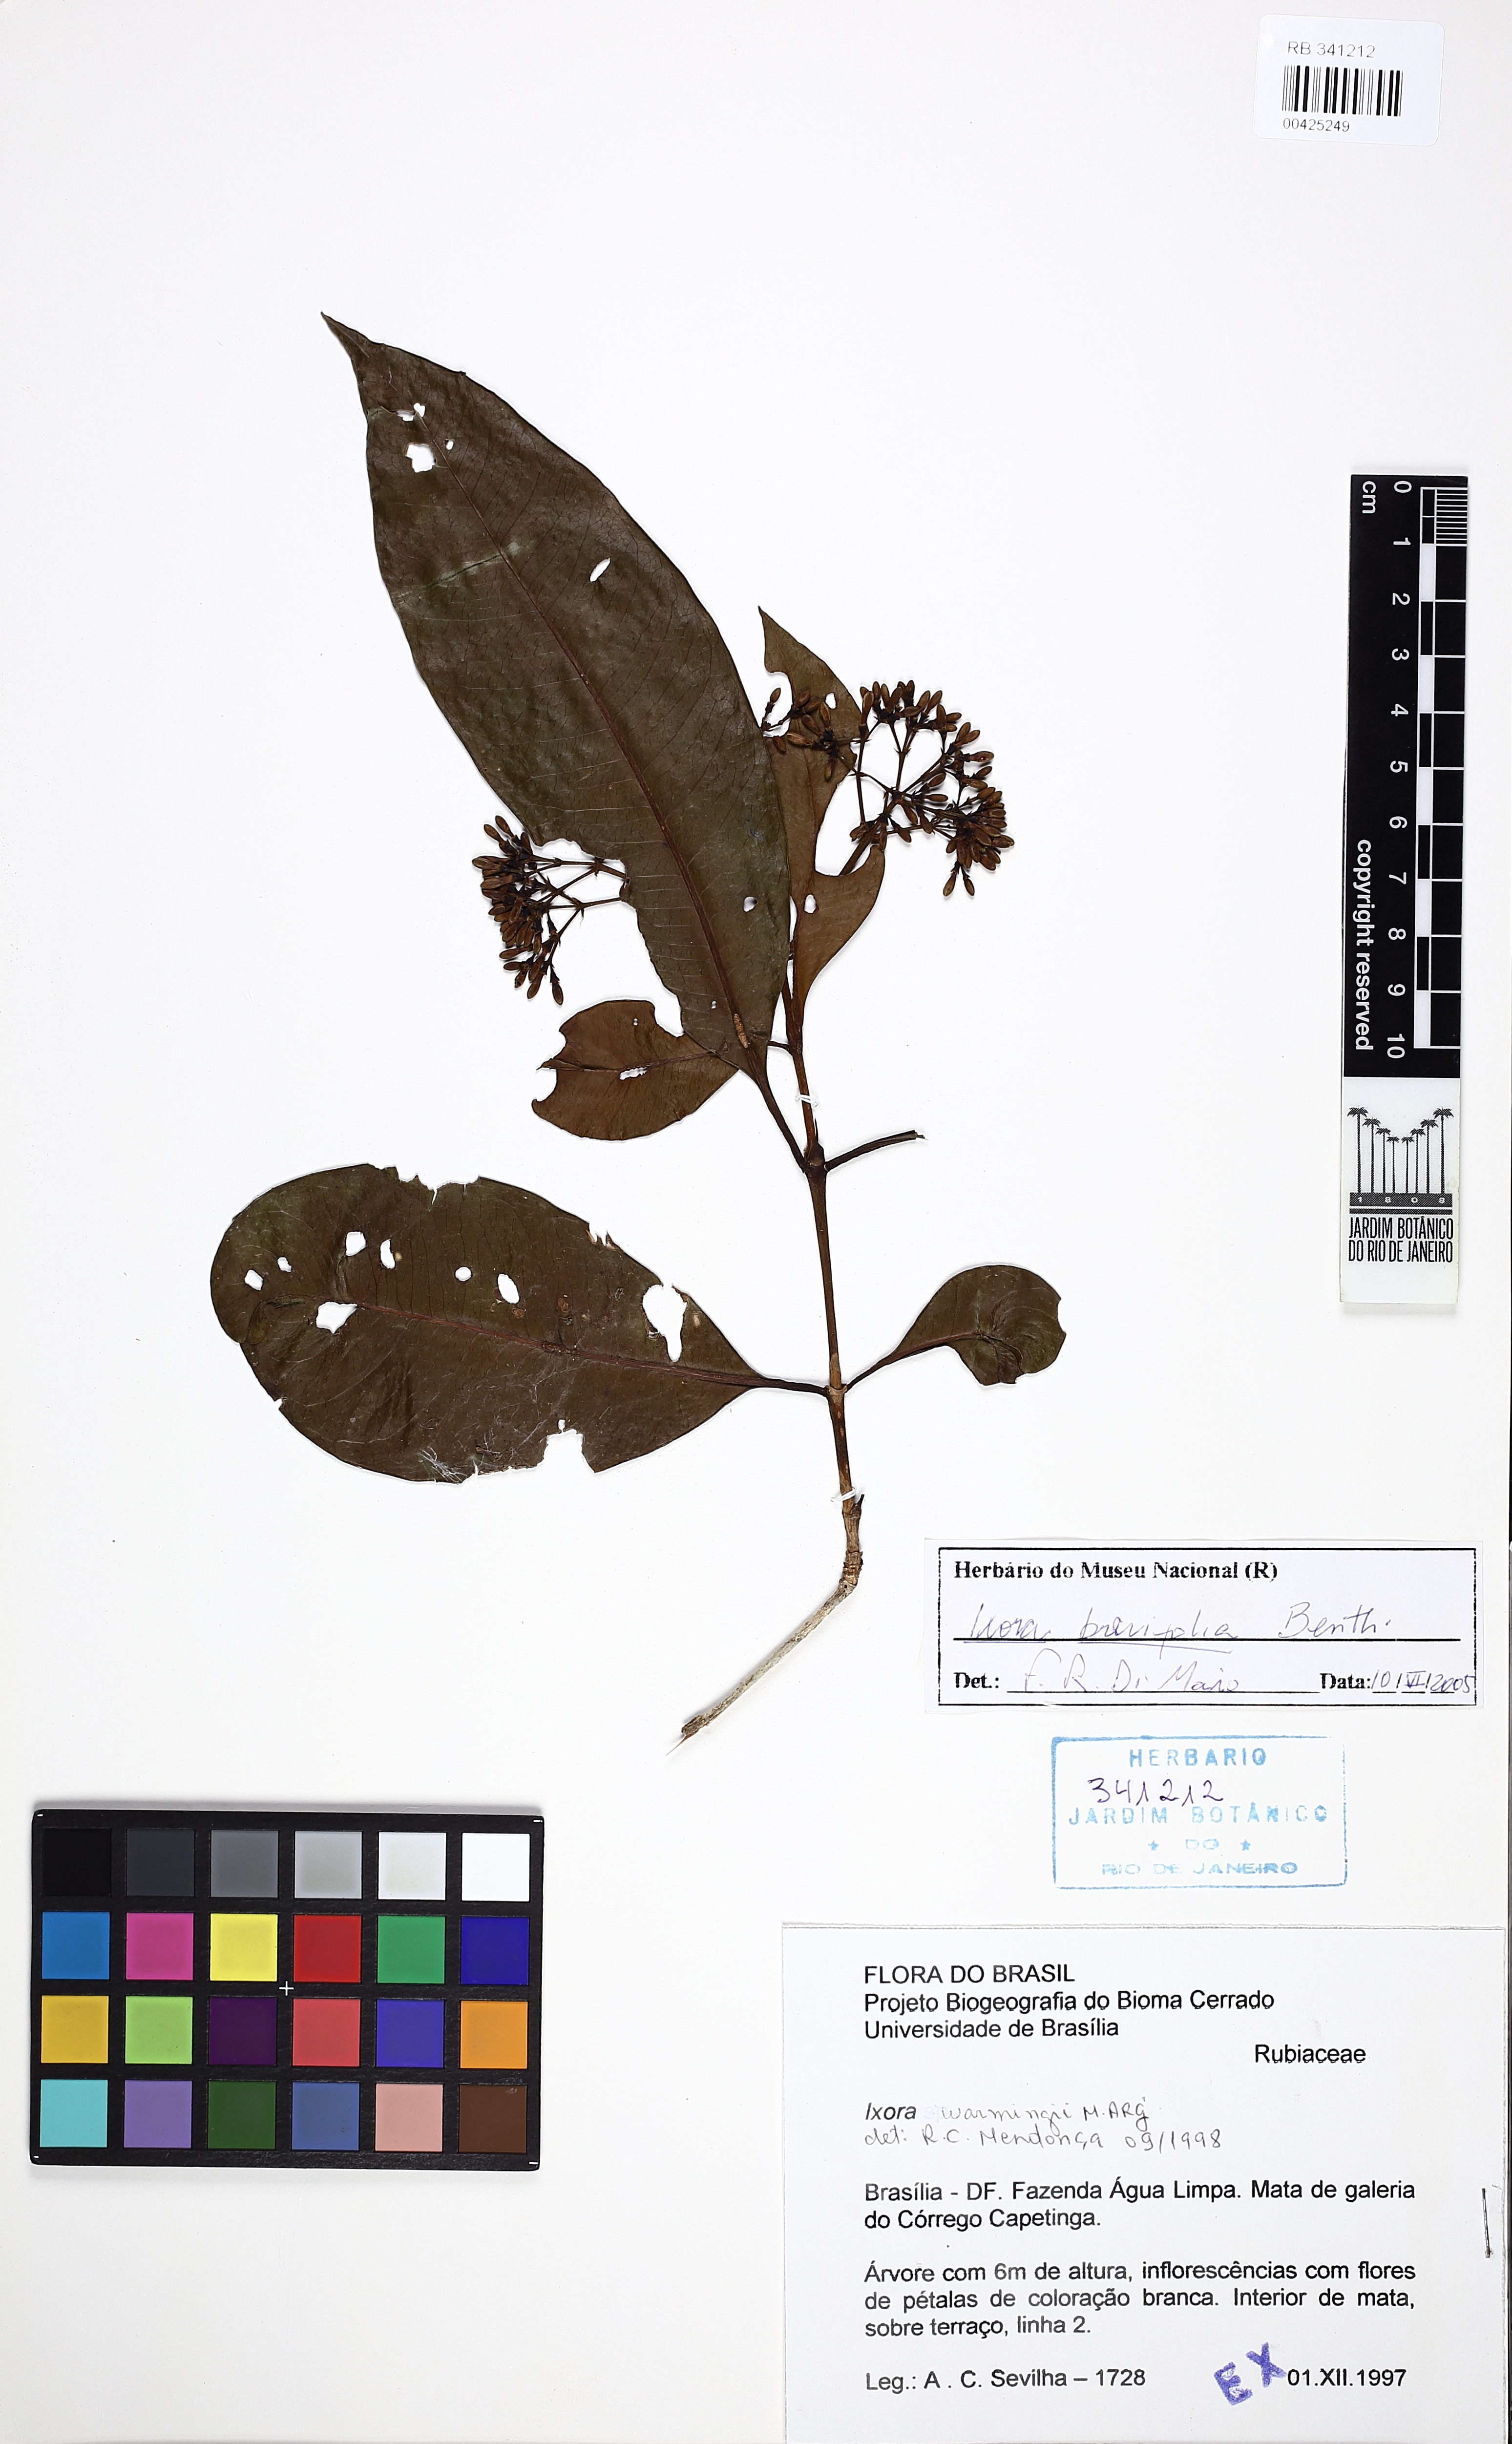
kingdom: Plantae
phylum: Tracheophyta
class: Magnoliopsida
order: Gentianales
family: Rubiaceae
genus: Ixora
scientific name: Ixora brevifolia
